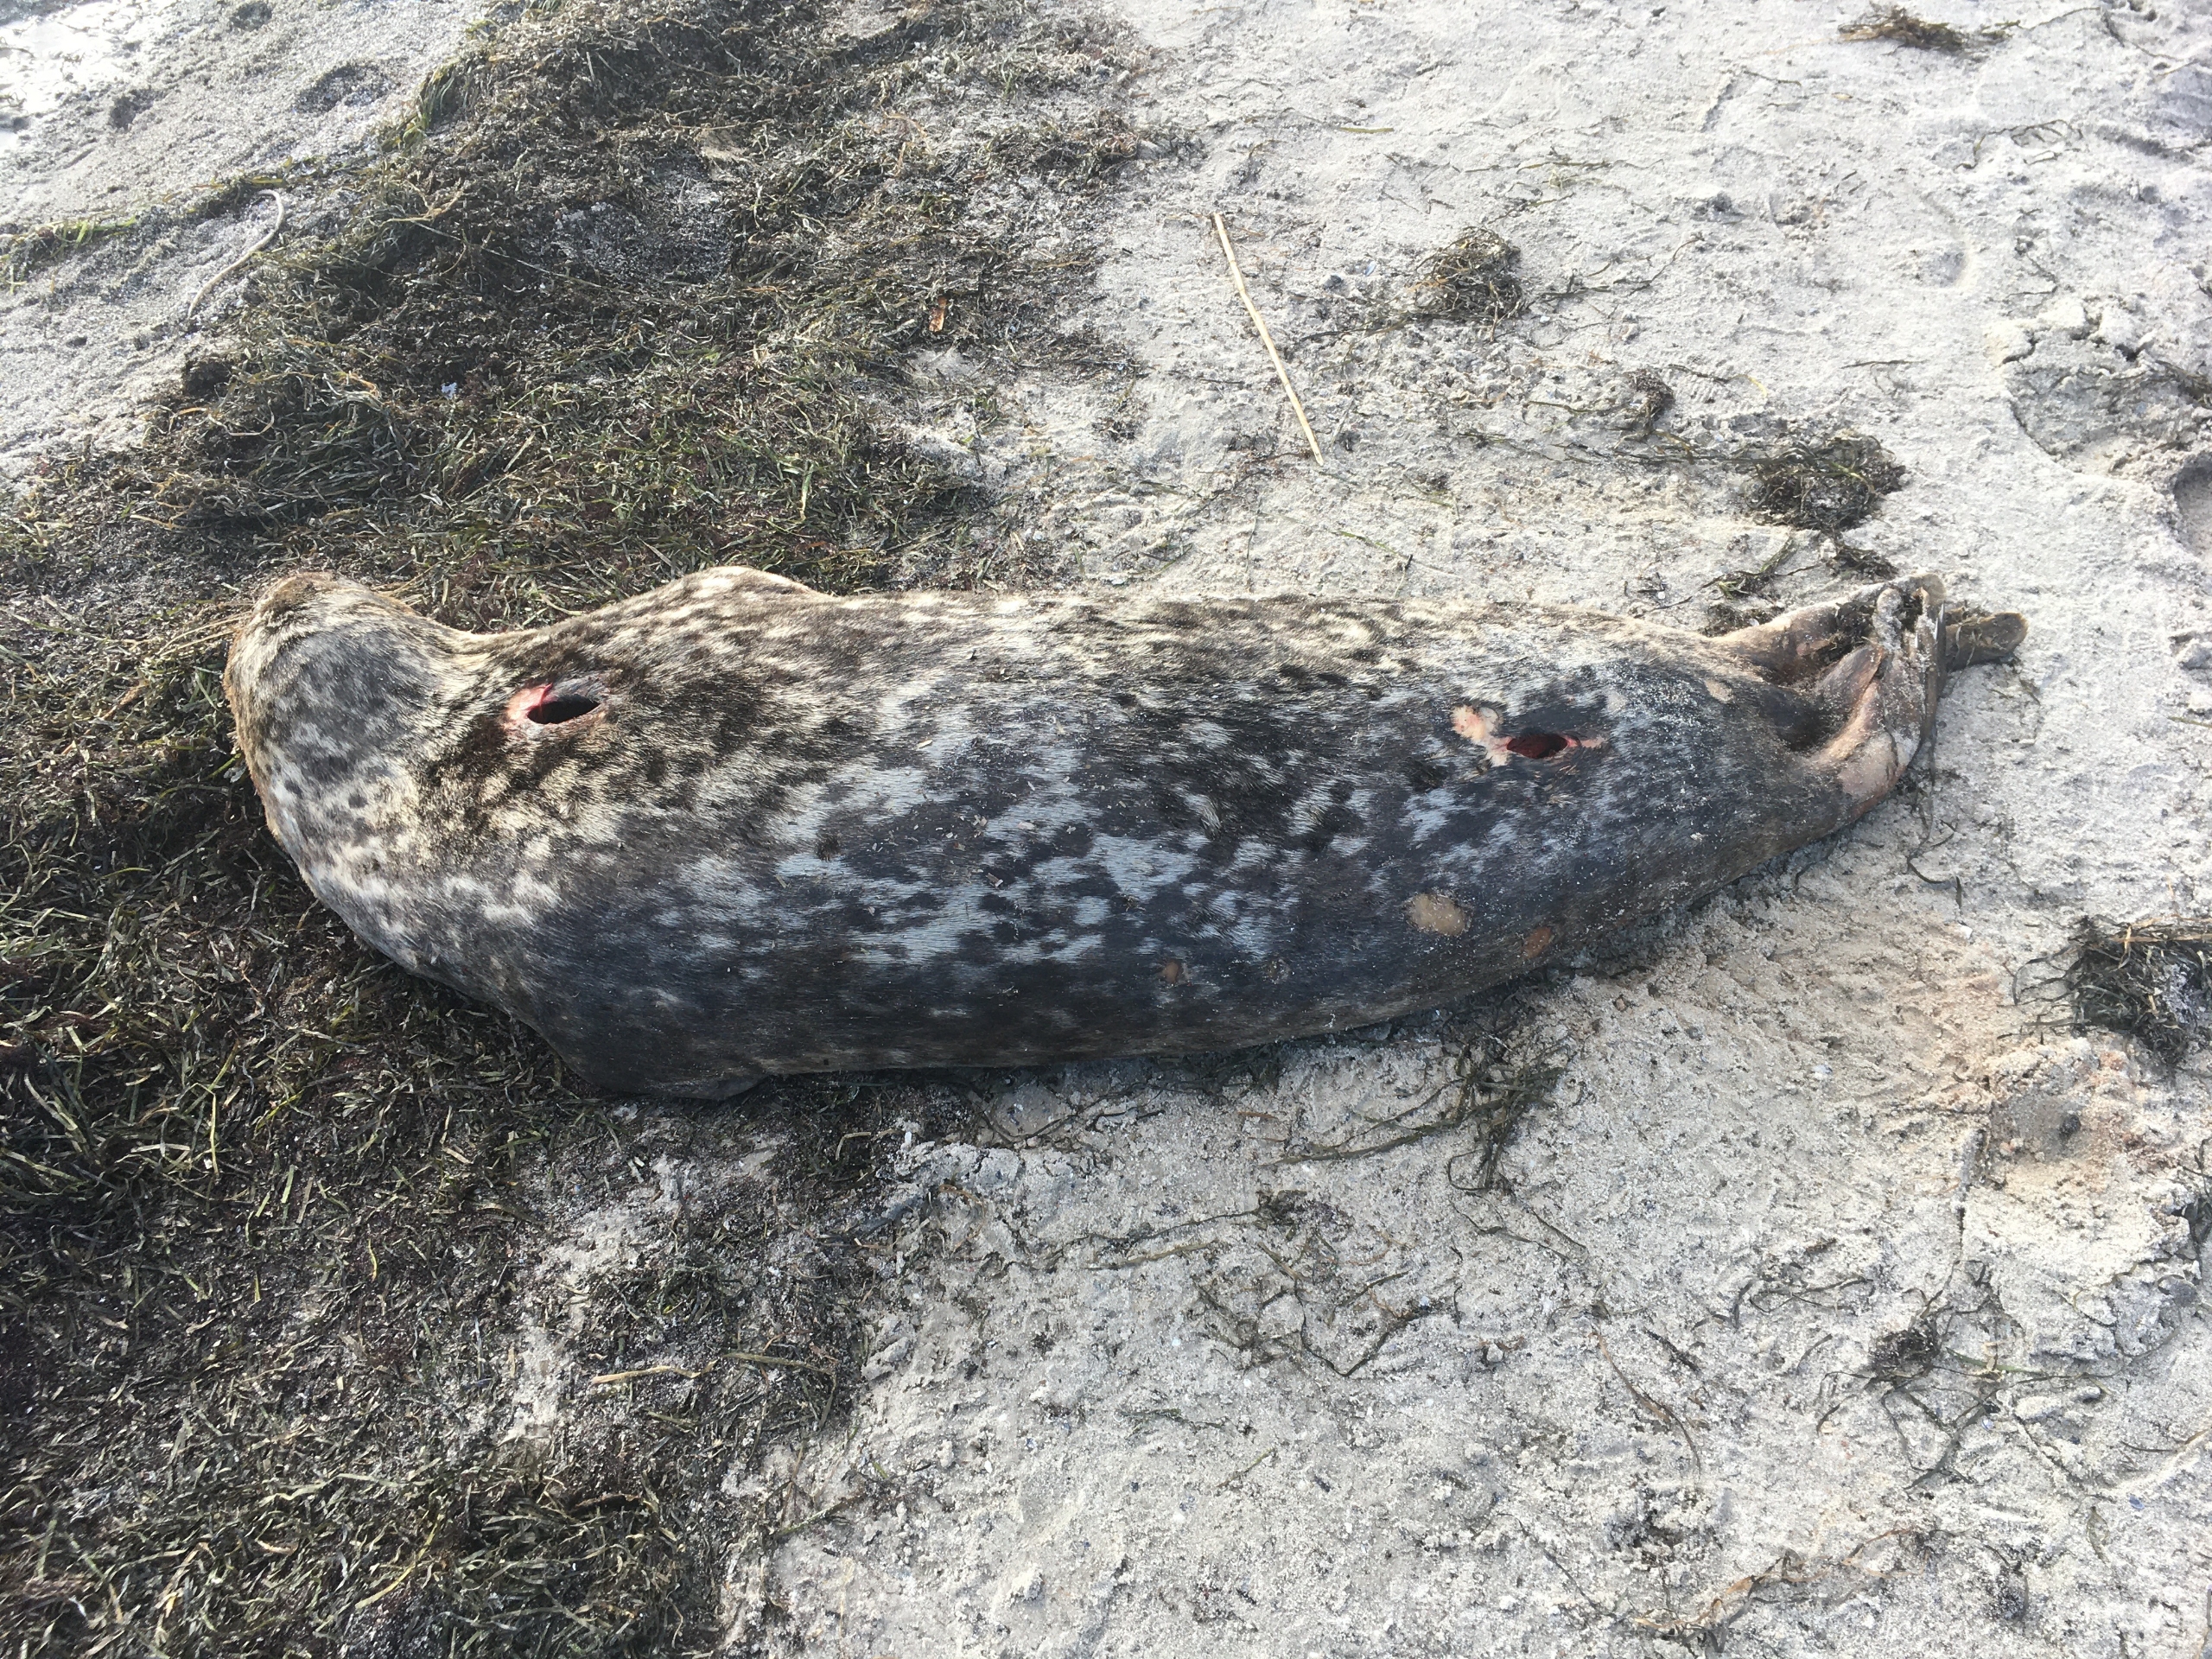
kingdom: Animalia
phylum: Chordata
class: Mammalia
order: Carnivora
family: Phocidae
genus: Phoca
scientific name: Phoca vitulina
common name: Spættet sæl
